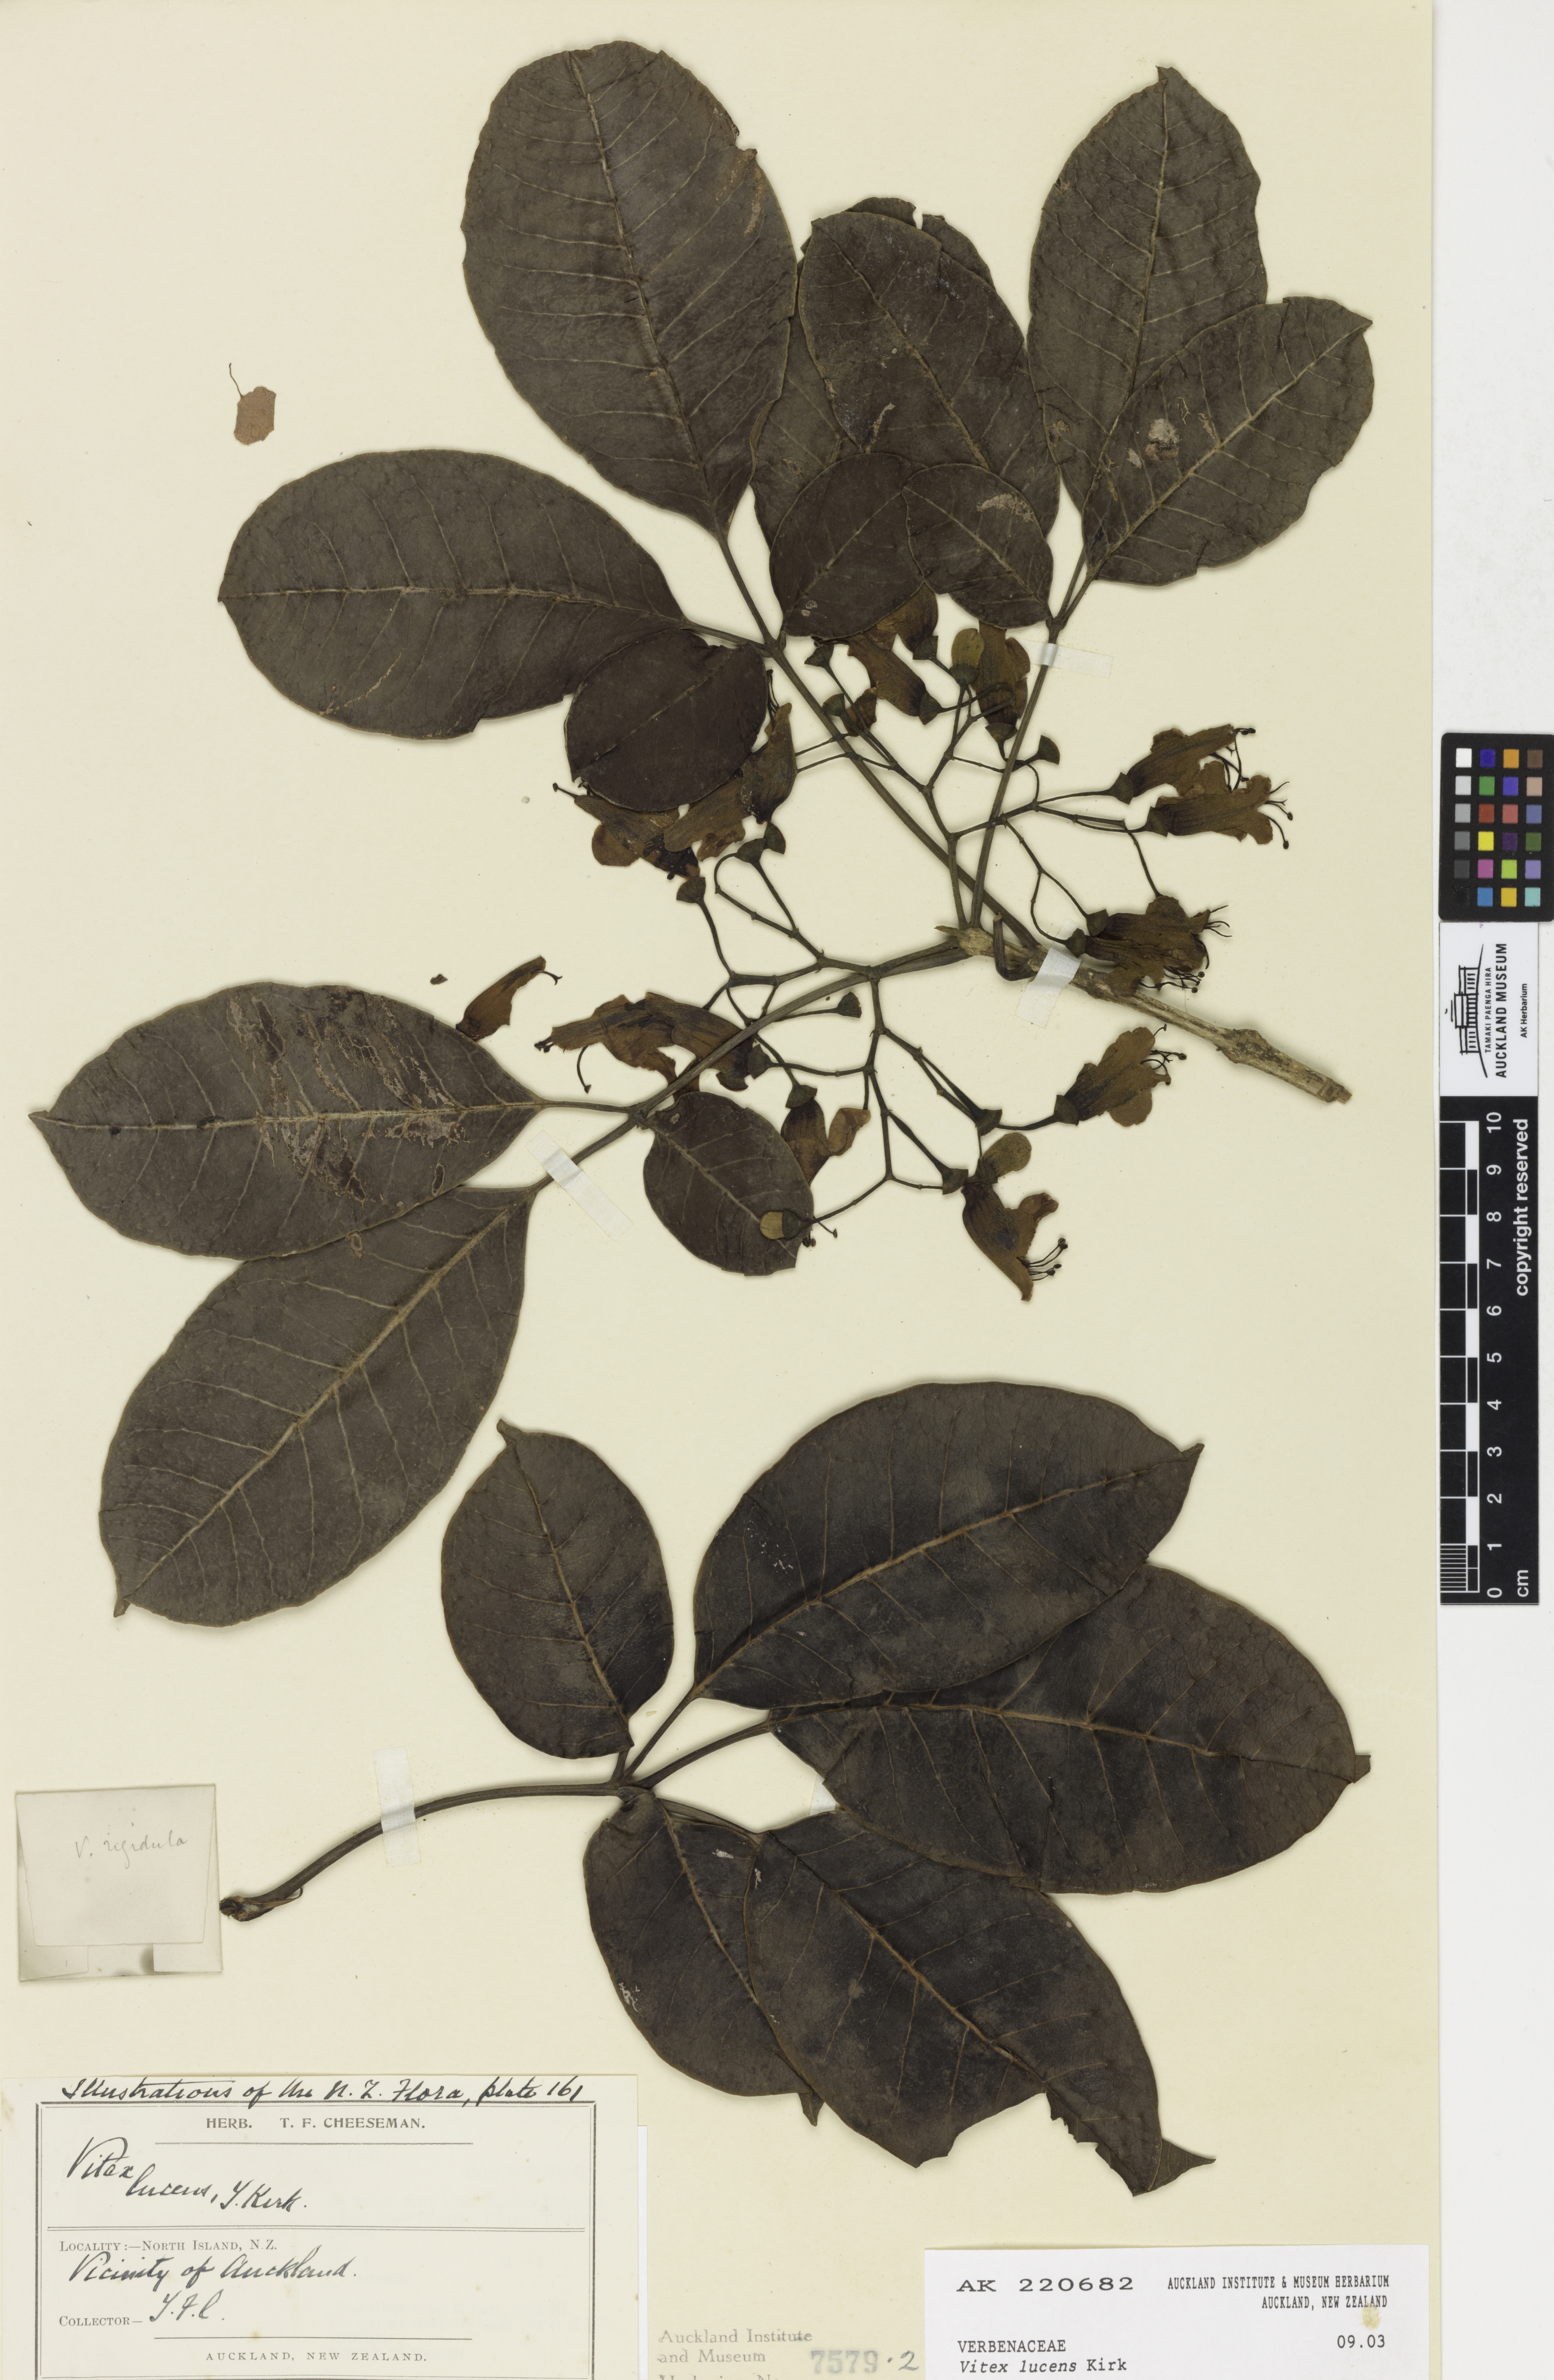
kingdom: Plantae
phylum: Tracheophyta
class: Magnoliopsida
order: Lamiales
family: Lamiaceae
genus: Vitex
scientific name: Vitex lucens
